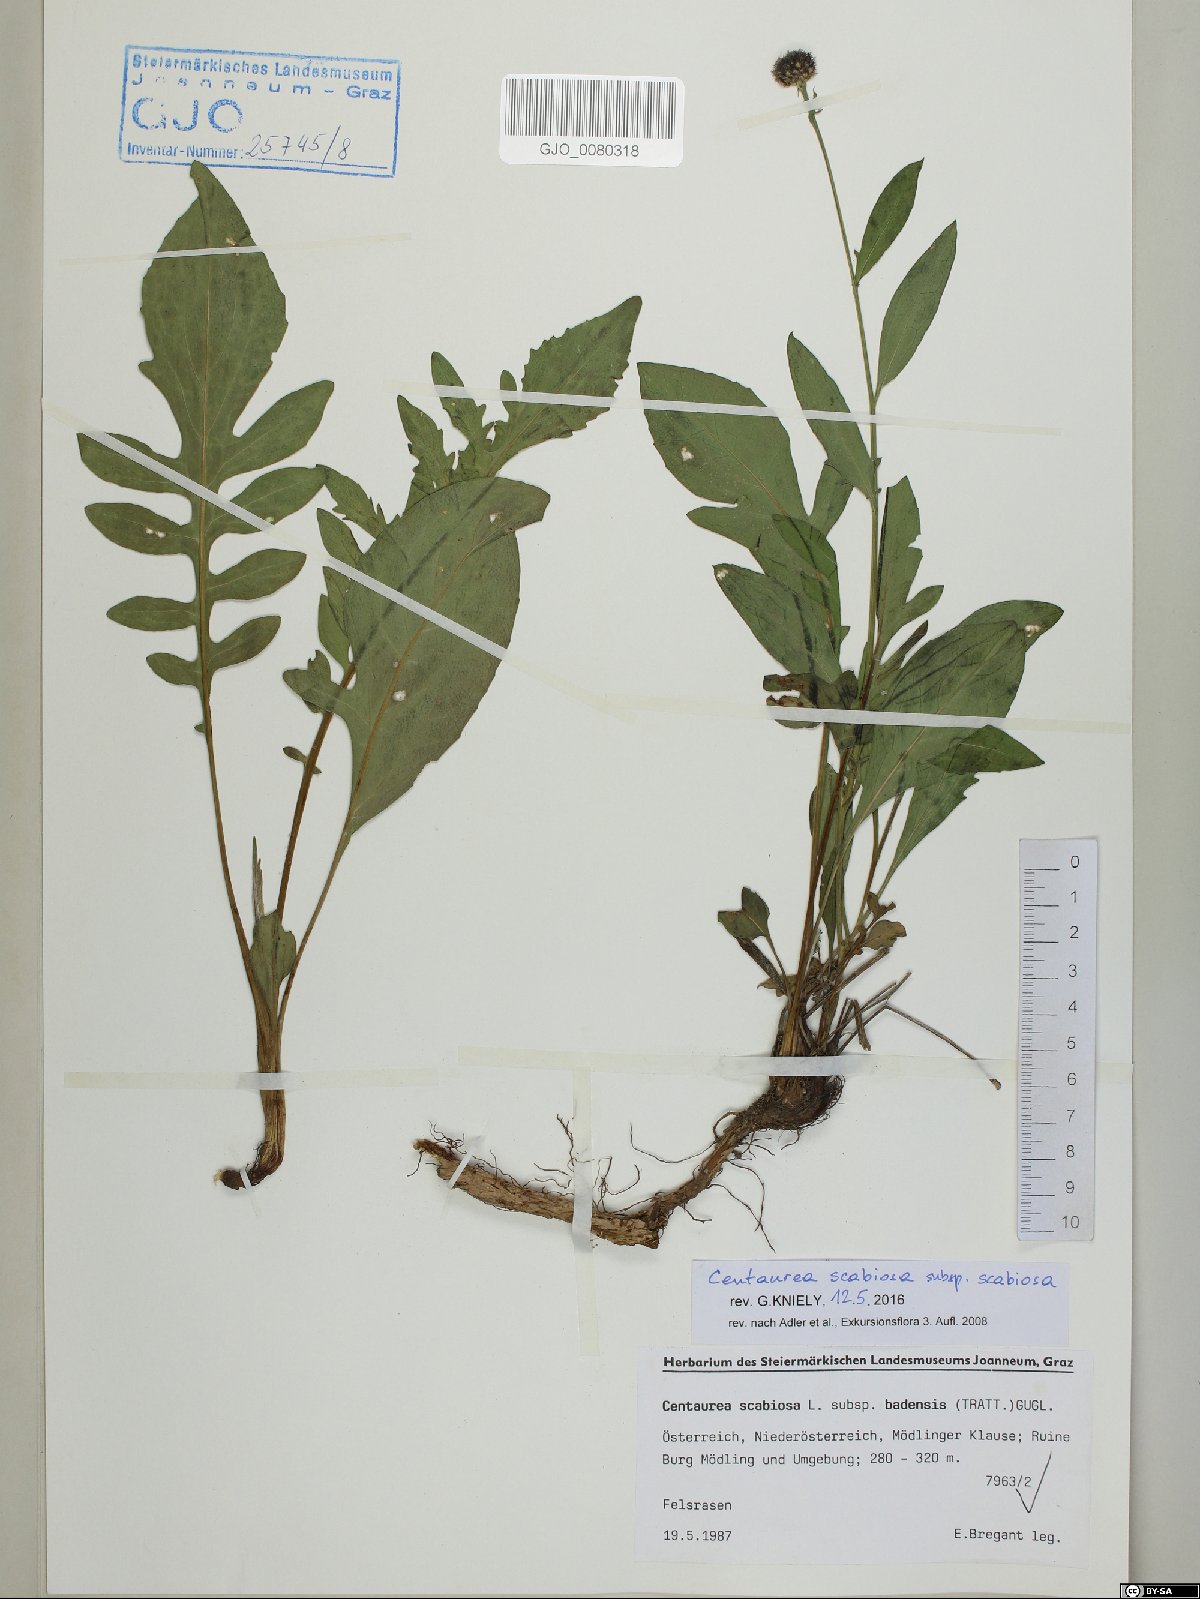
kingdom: Plantae
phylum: Tracheophyta
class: Magnoliopsida
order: Asterales
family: Asteraceae
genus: Centaurea
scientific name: Centaurea scabiosa
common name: Greater knapweed
